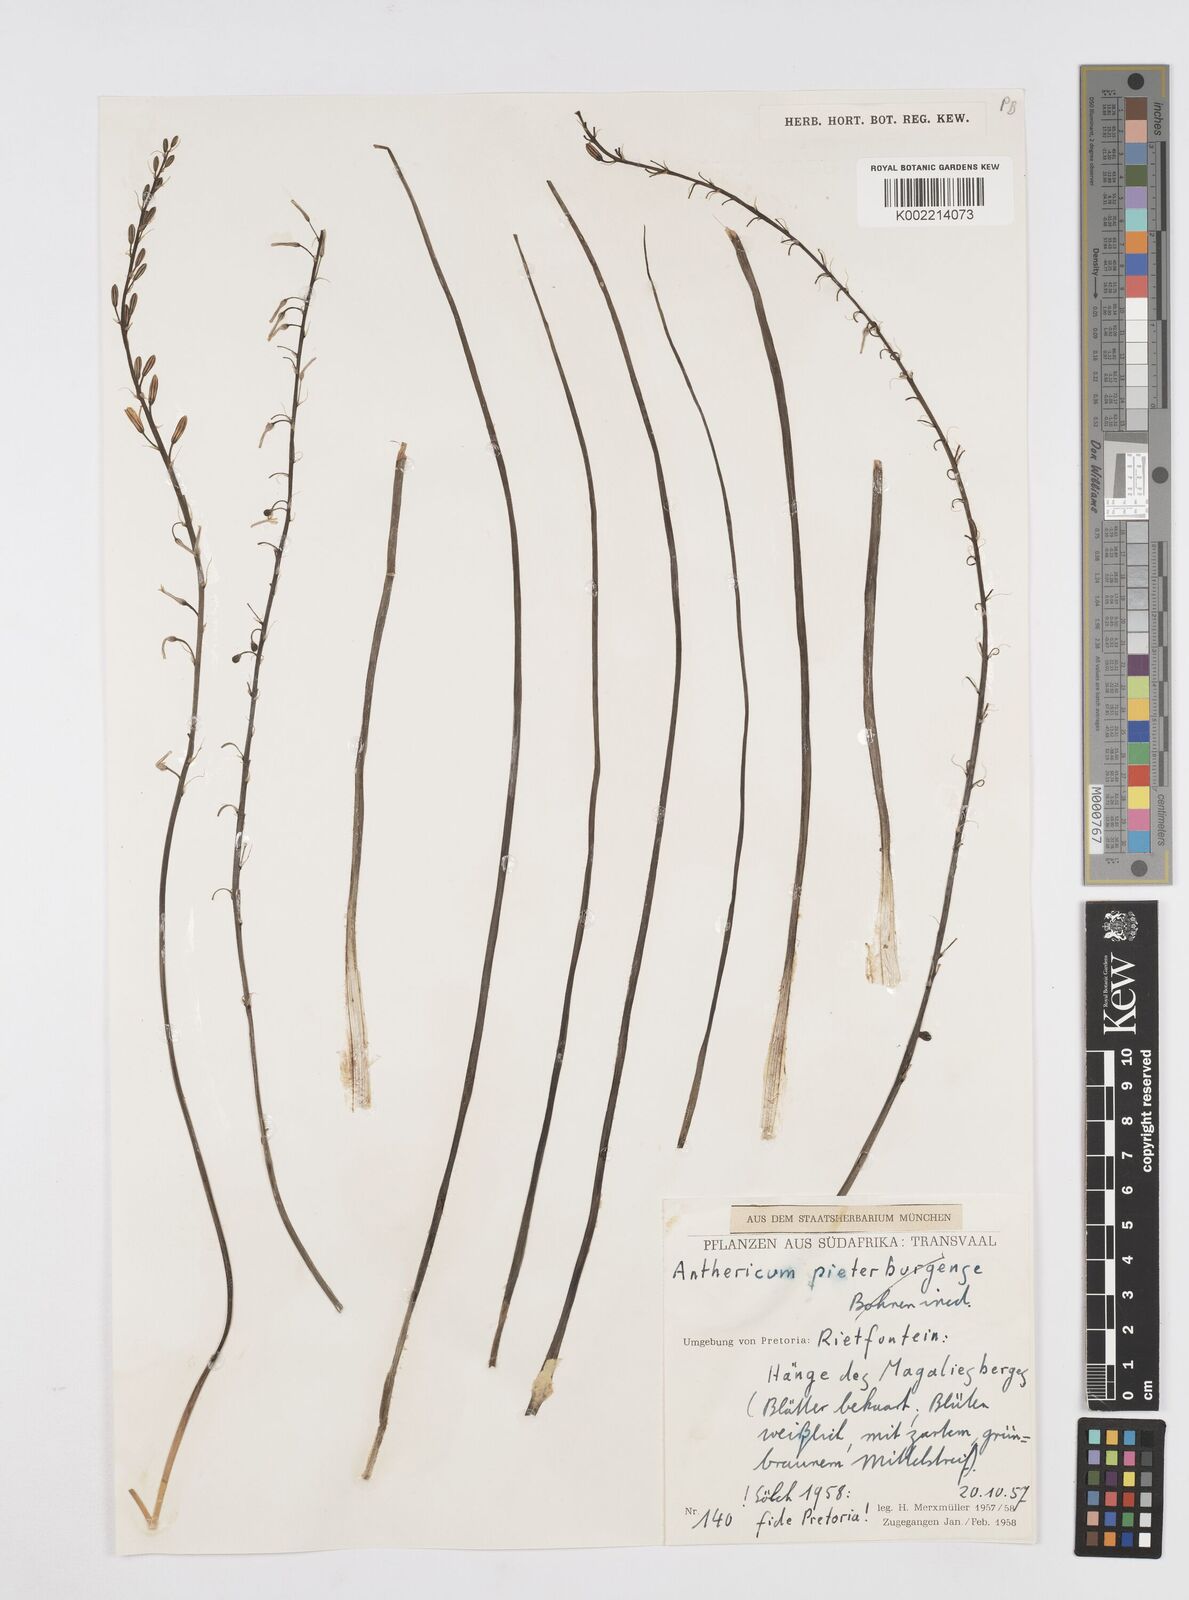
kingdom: Plantae
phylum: Tracheophyta
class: Liliopsida
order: Asparagales
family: Asphodelaceae
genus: Trachyandra
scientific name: Trachyandra
